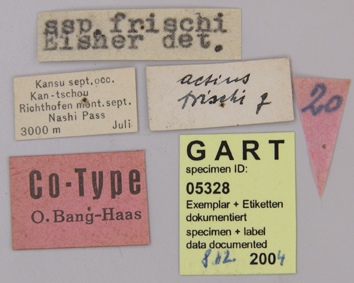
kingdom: Animalia
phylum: Arthropoda
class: Insecta
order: Lepidoptera
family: Papilionidae
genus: Parnassius
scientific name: Parnassius actius
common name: Scarce red apollo
